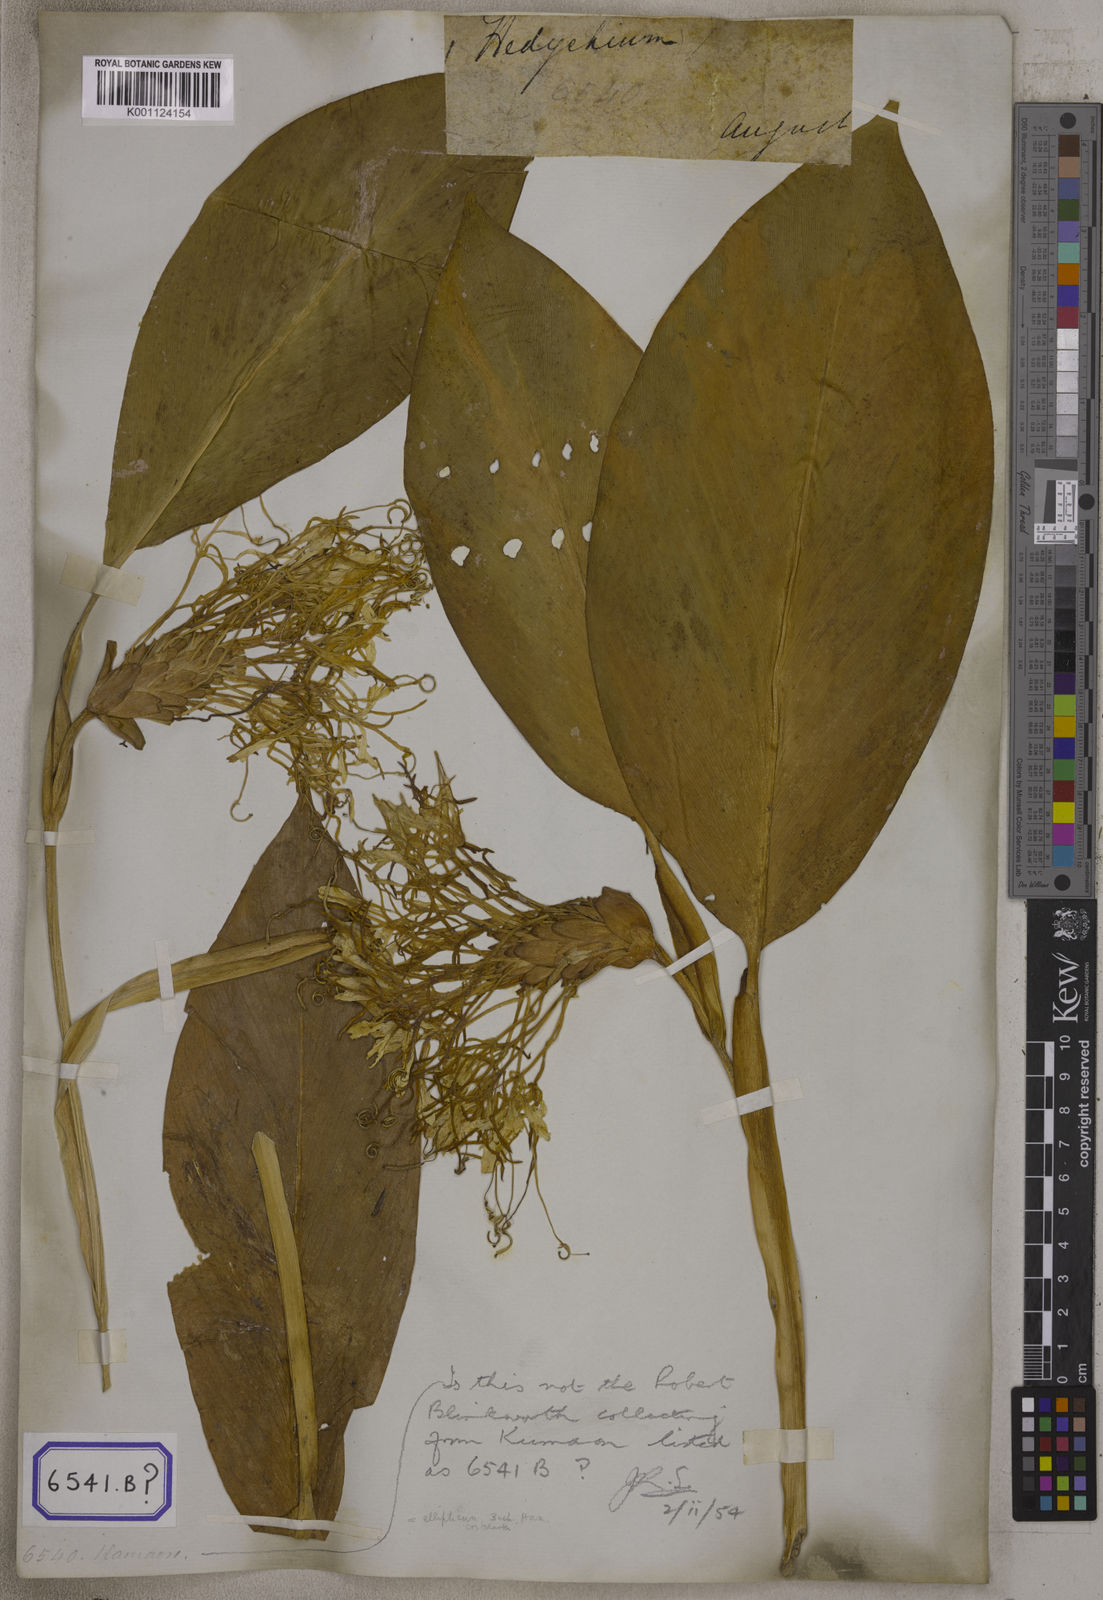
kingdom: Plantae
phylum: Tracheophyta
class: Liliopsida
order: Zingiberales
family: Zingiberaceae
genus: Hedychium
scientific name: Hedychium
